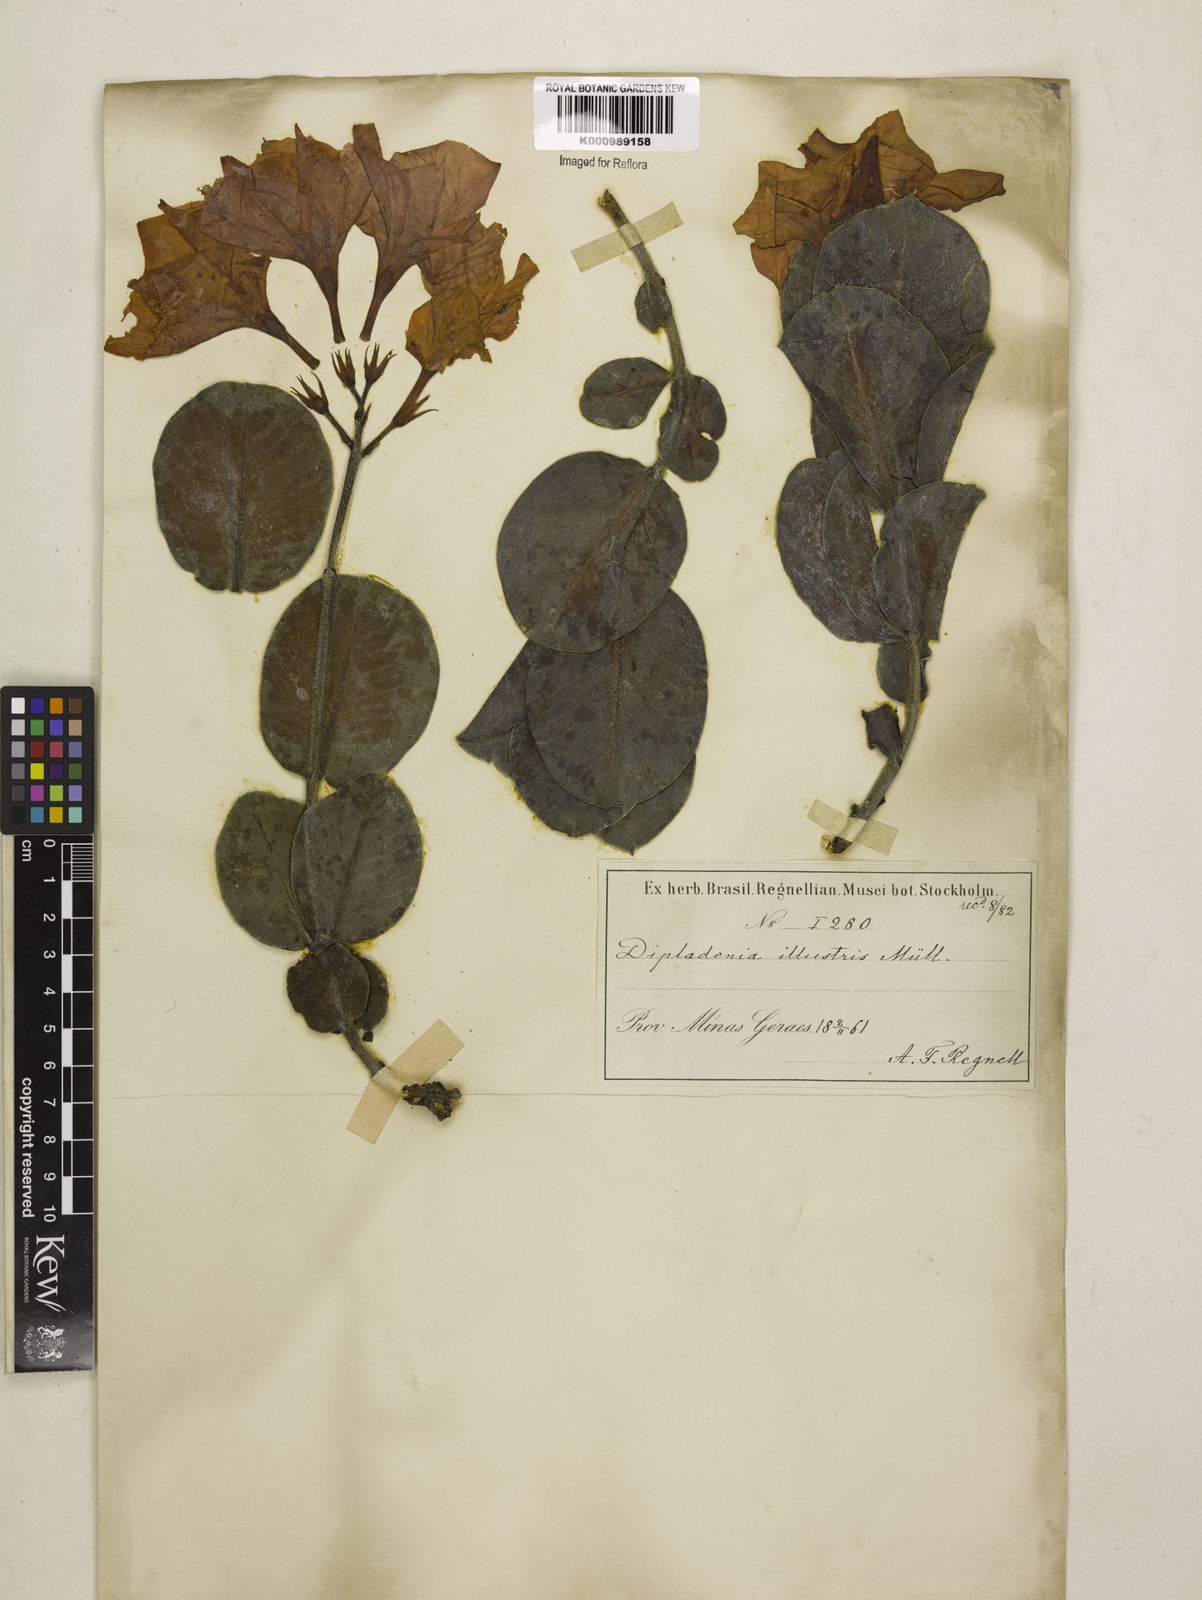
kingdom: Plantae
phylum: Tracheophyta
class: Magnoliopsida
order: Gentianales
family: Apocynaceae
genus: Mandevilla
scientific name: Mandevilla illustris
